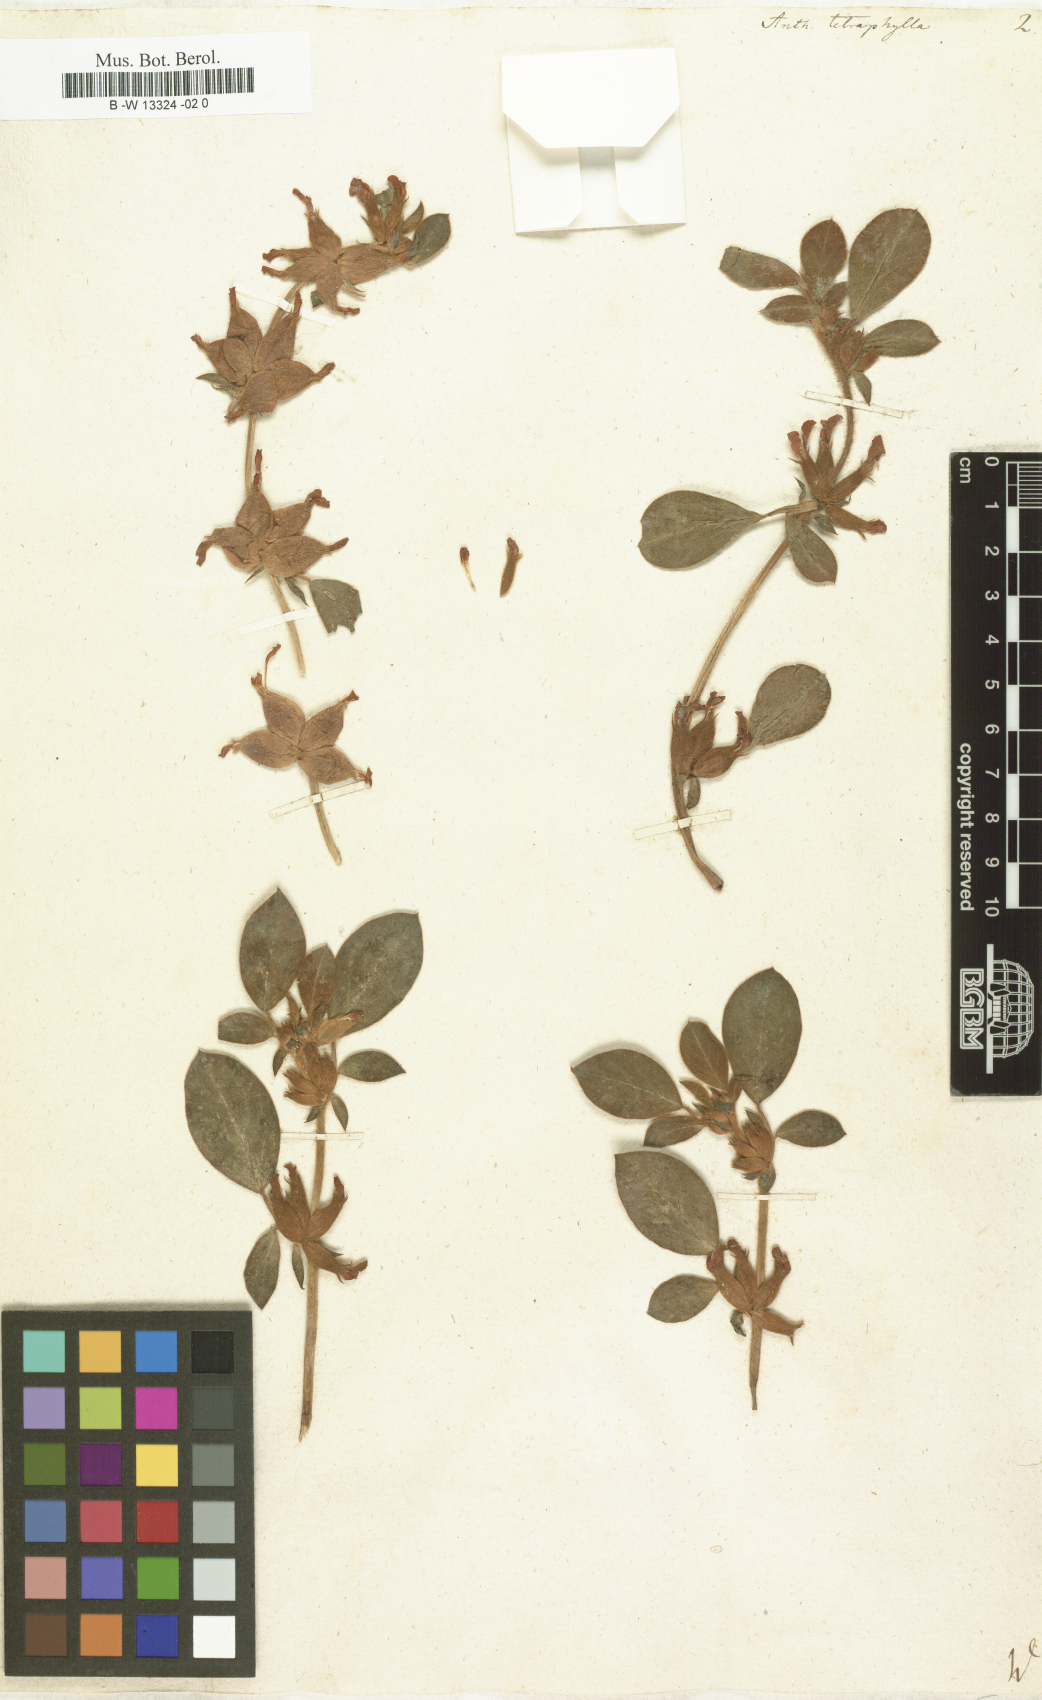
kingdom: Plantae
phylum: Tracheophyta
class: Magnoliopsida
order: Fabales
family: Fabaceae
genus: Tripodion
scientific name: Tripodion tetraphyllum
